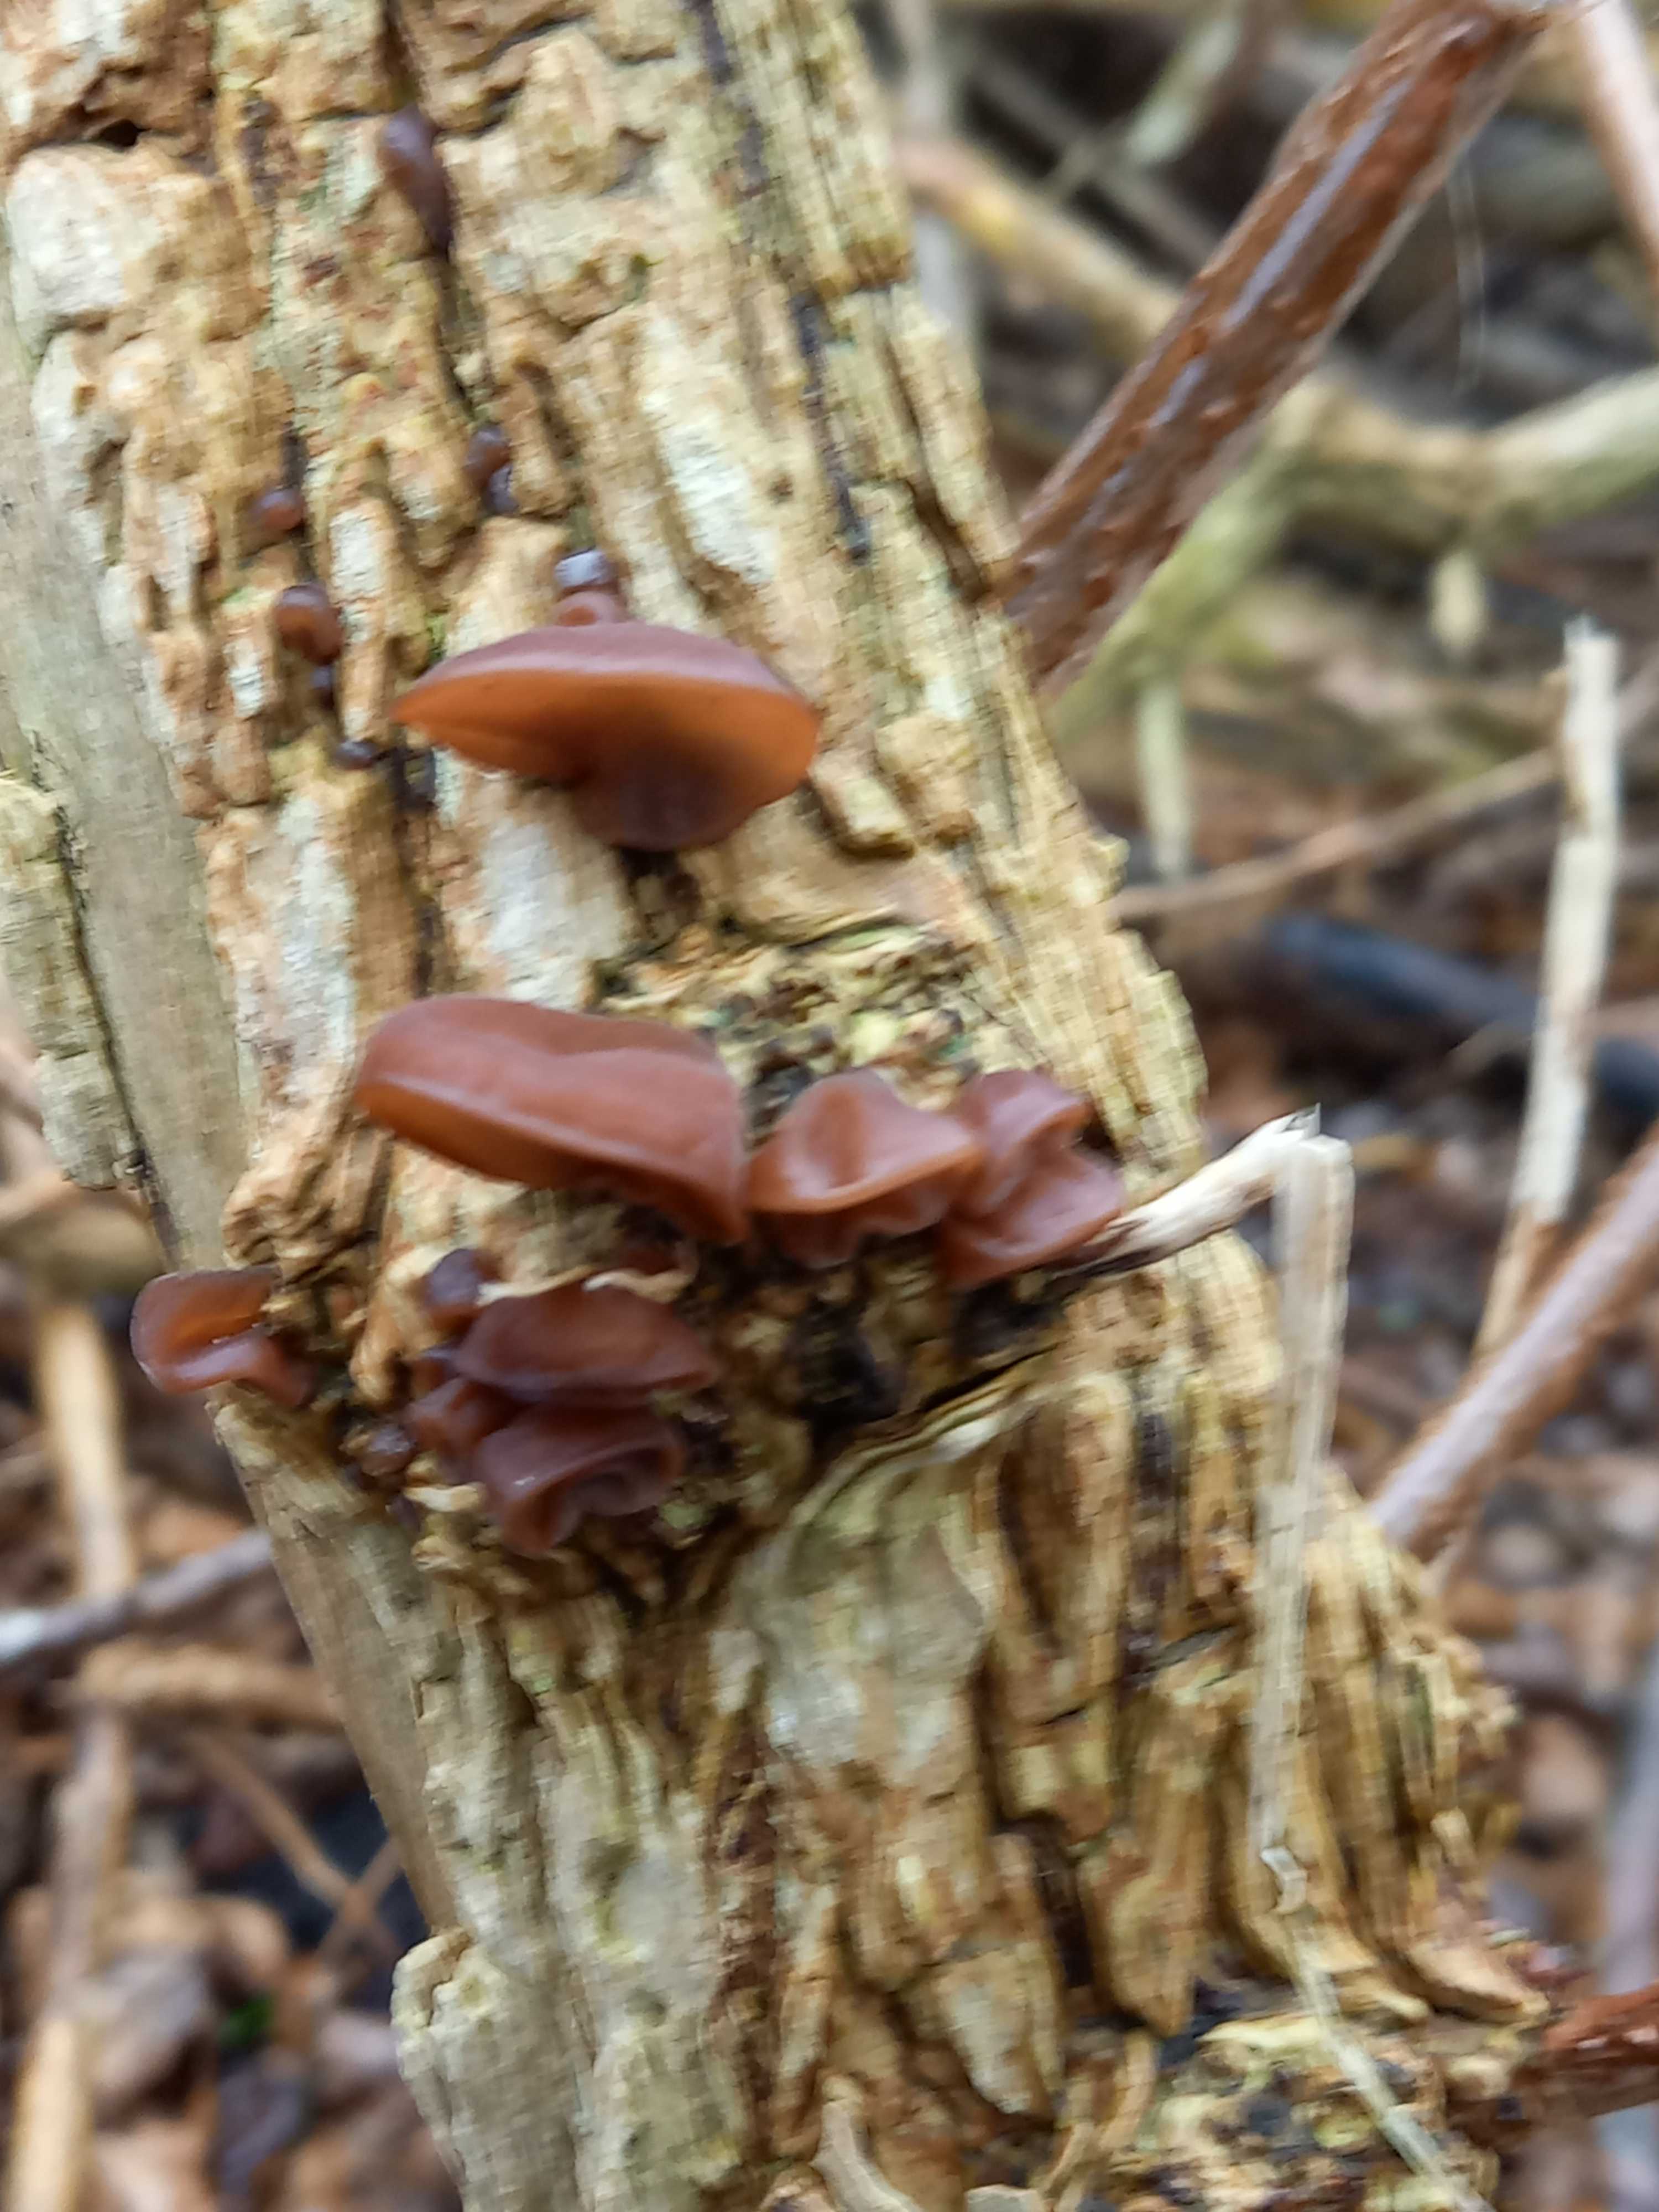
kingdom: Fungi
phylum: Basidiomycota
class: Agaricomycetes
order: Auriculariales
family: Auriculariaceae
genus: Auricularia
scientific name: Auricularia auricula-judae
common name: almindelig judasøre
